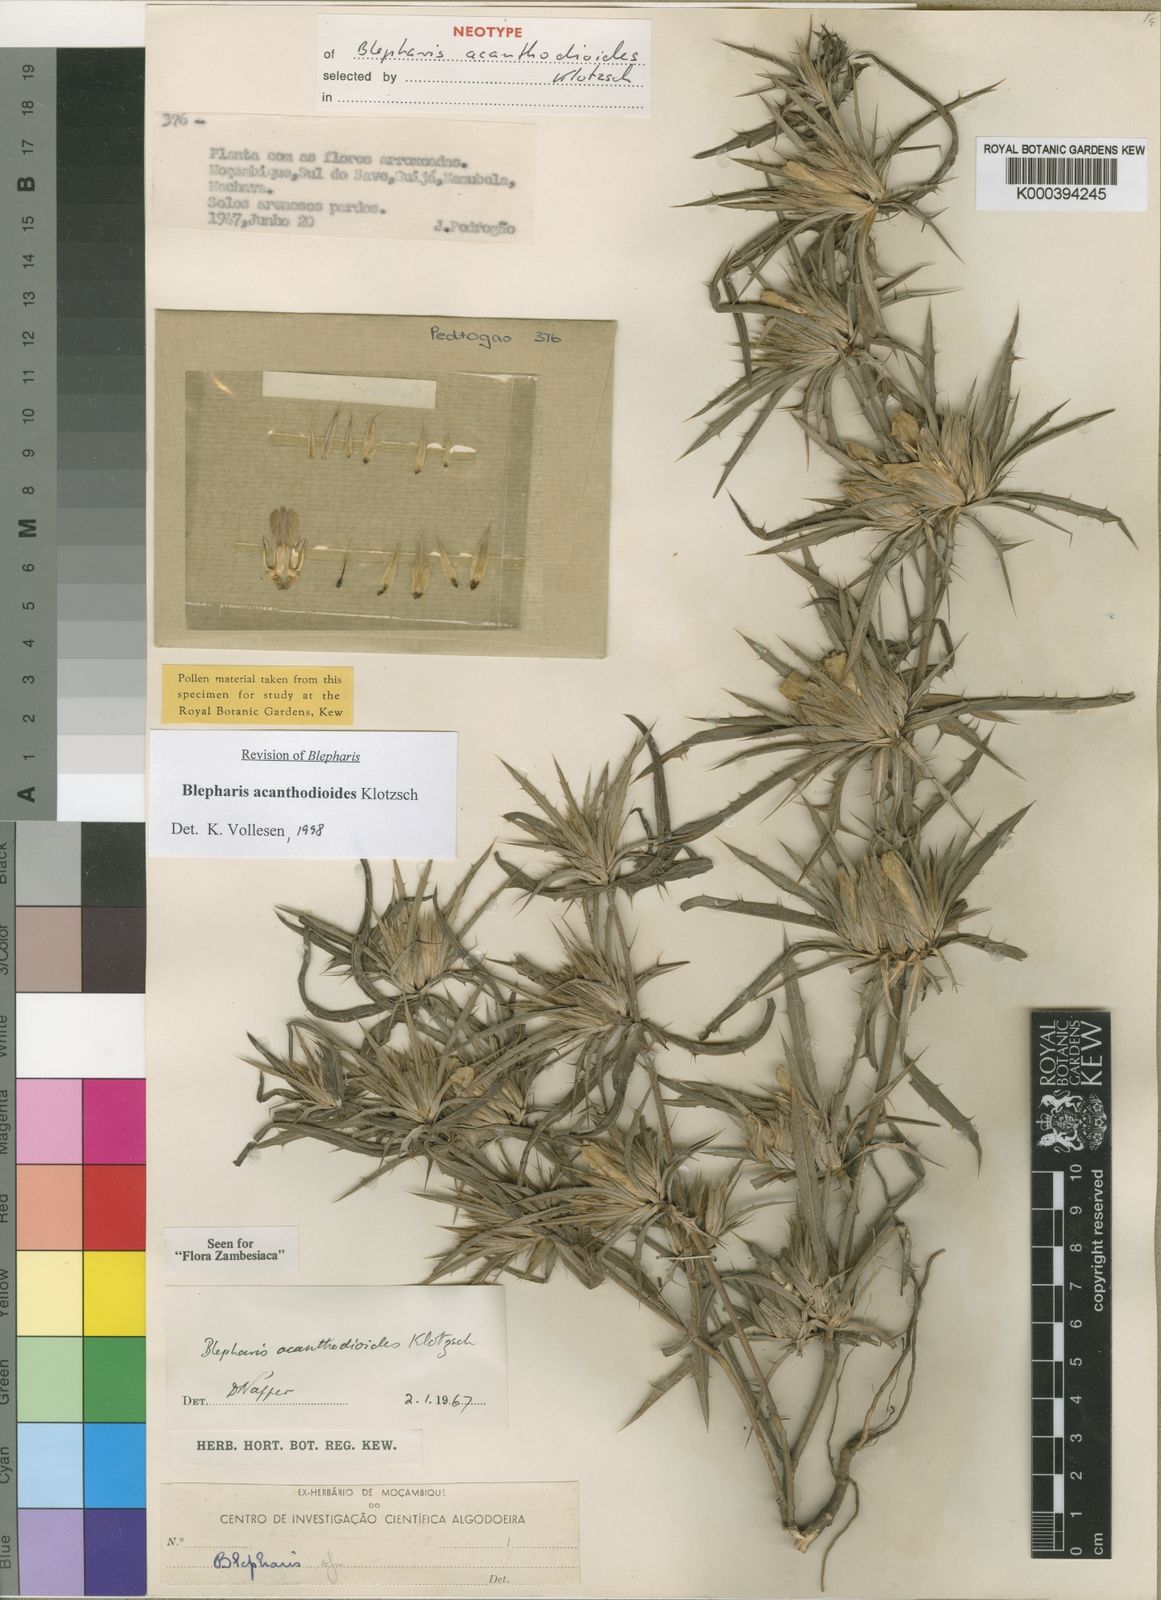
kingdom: Plantae
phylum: Tracheophyta
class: Magnoliopsida
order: Lamiales
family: Acanthaceae
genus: Blepharis
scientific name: Blepharis acanthodioides
